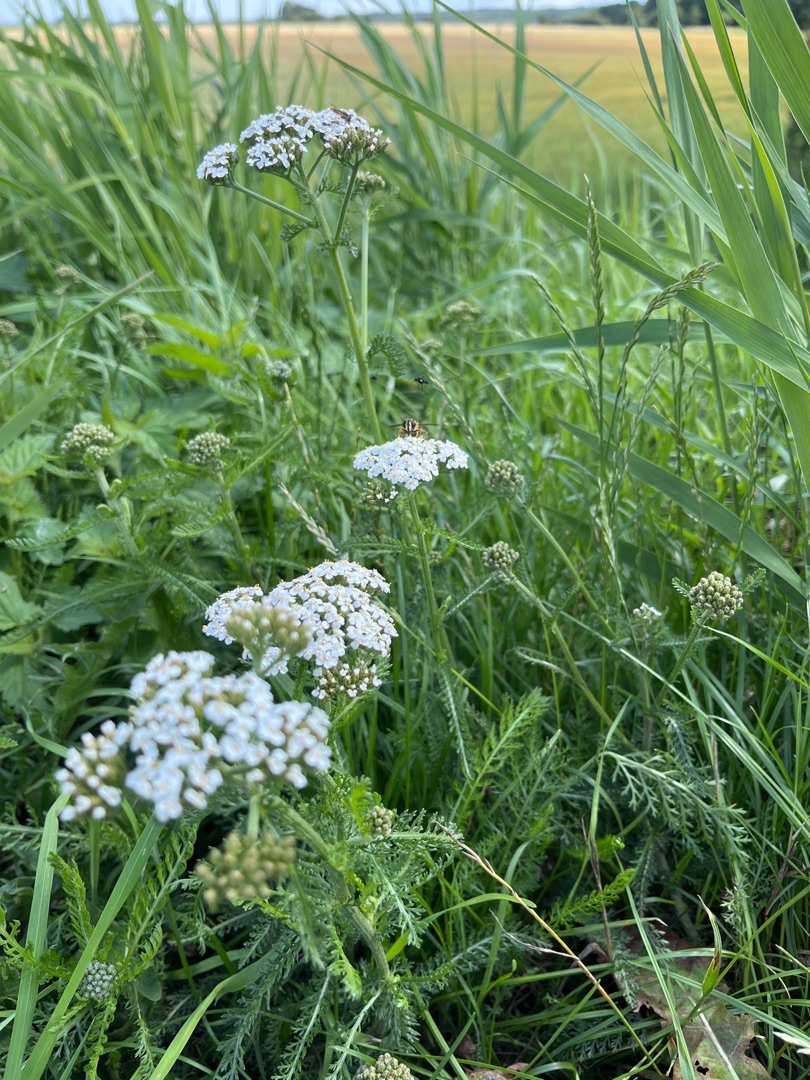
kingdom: Plantae
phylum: Tracheophyta
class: Magnoliopsida
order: Asterales
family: Asteraceae
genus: Achillea
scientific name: Achillea millefolium
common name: Almindelig røllike
